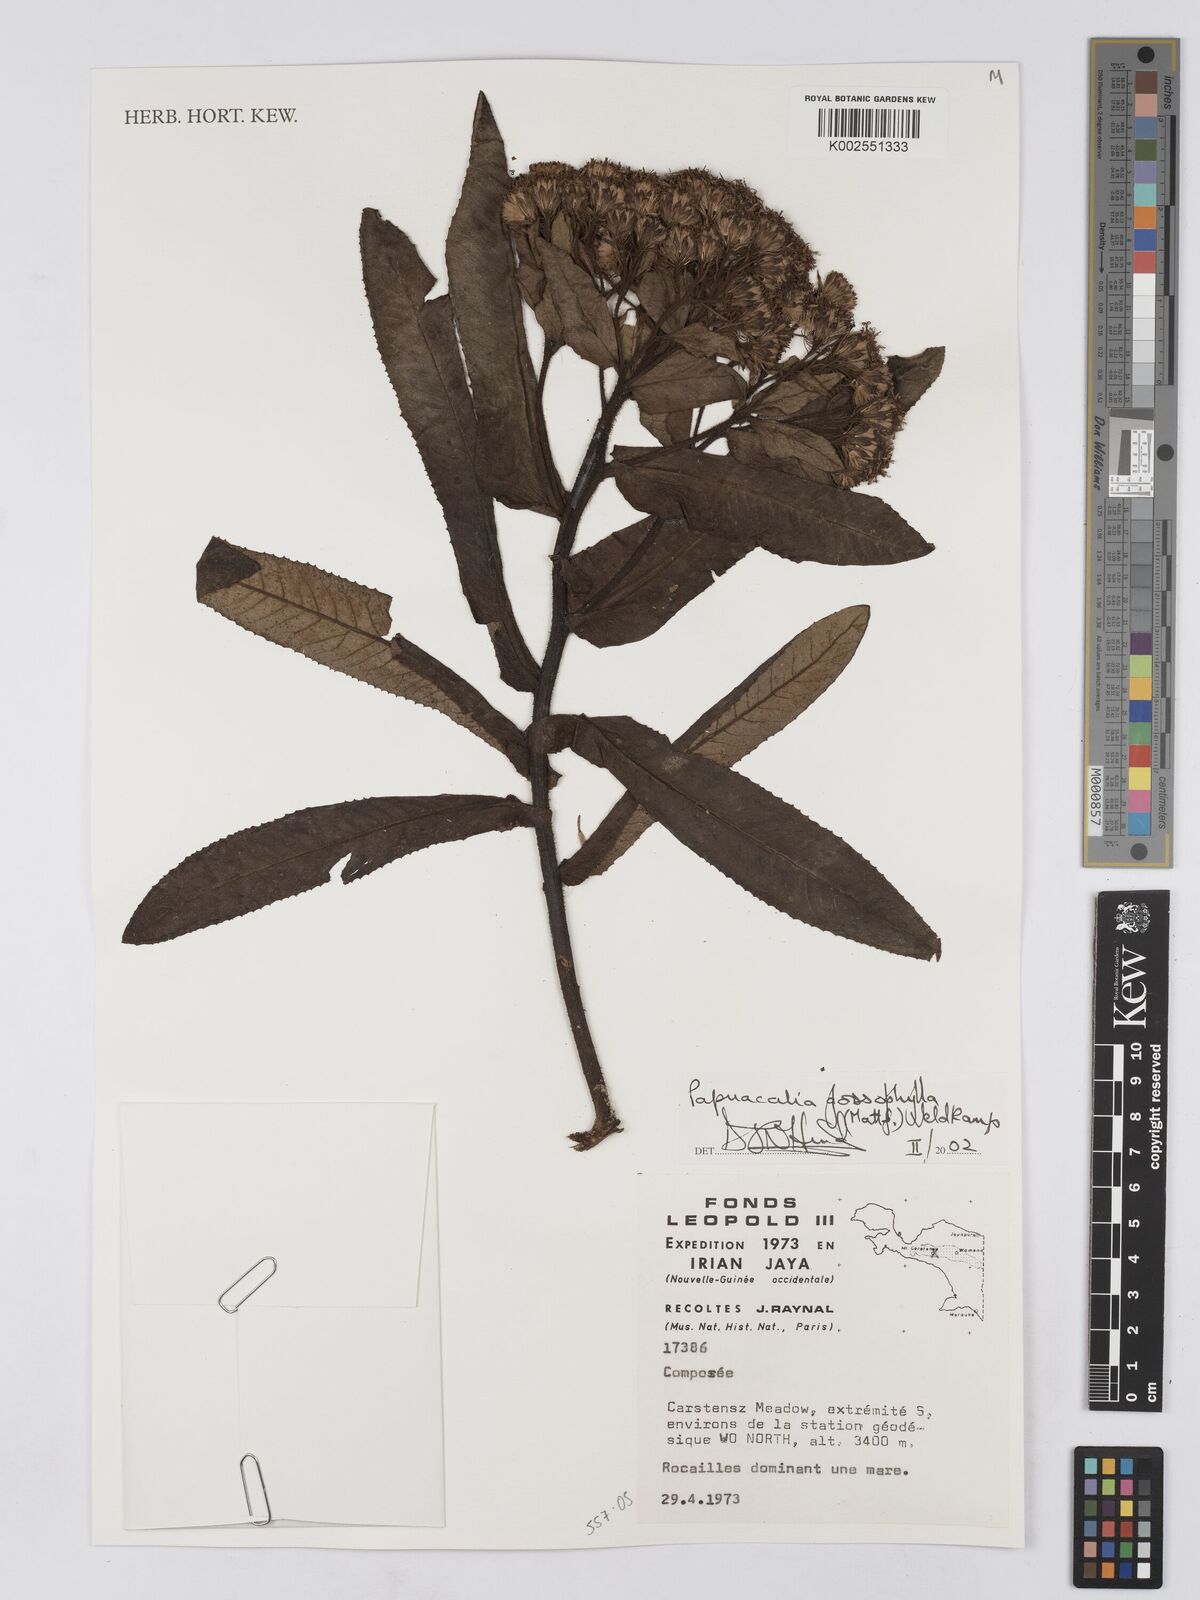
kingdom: Plantae
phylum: Tracheophyta
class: Magnoliopsida
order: Asterales
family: Asteraceae
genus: Papuacalia
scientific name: Papuacalia glossophylla
